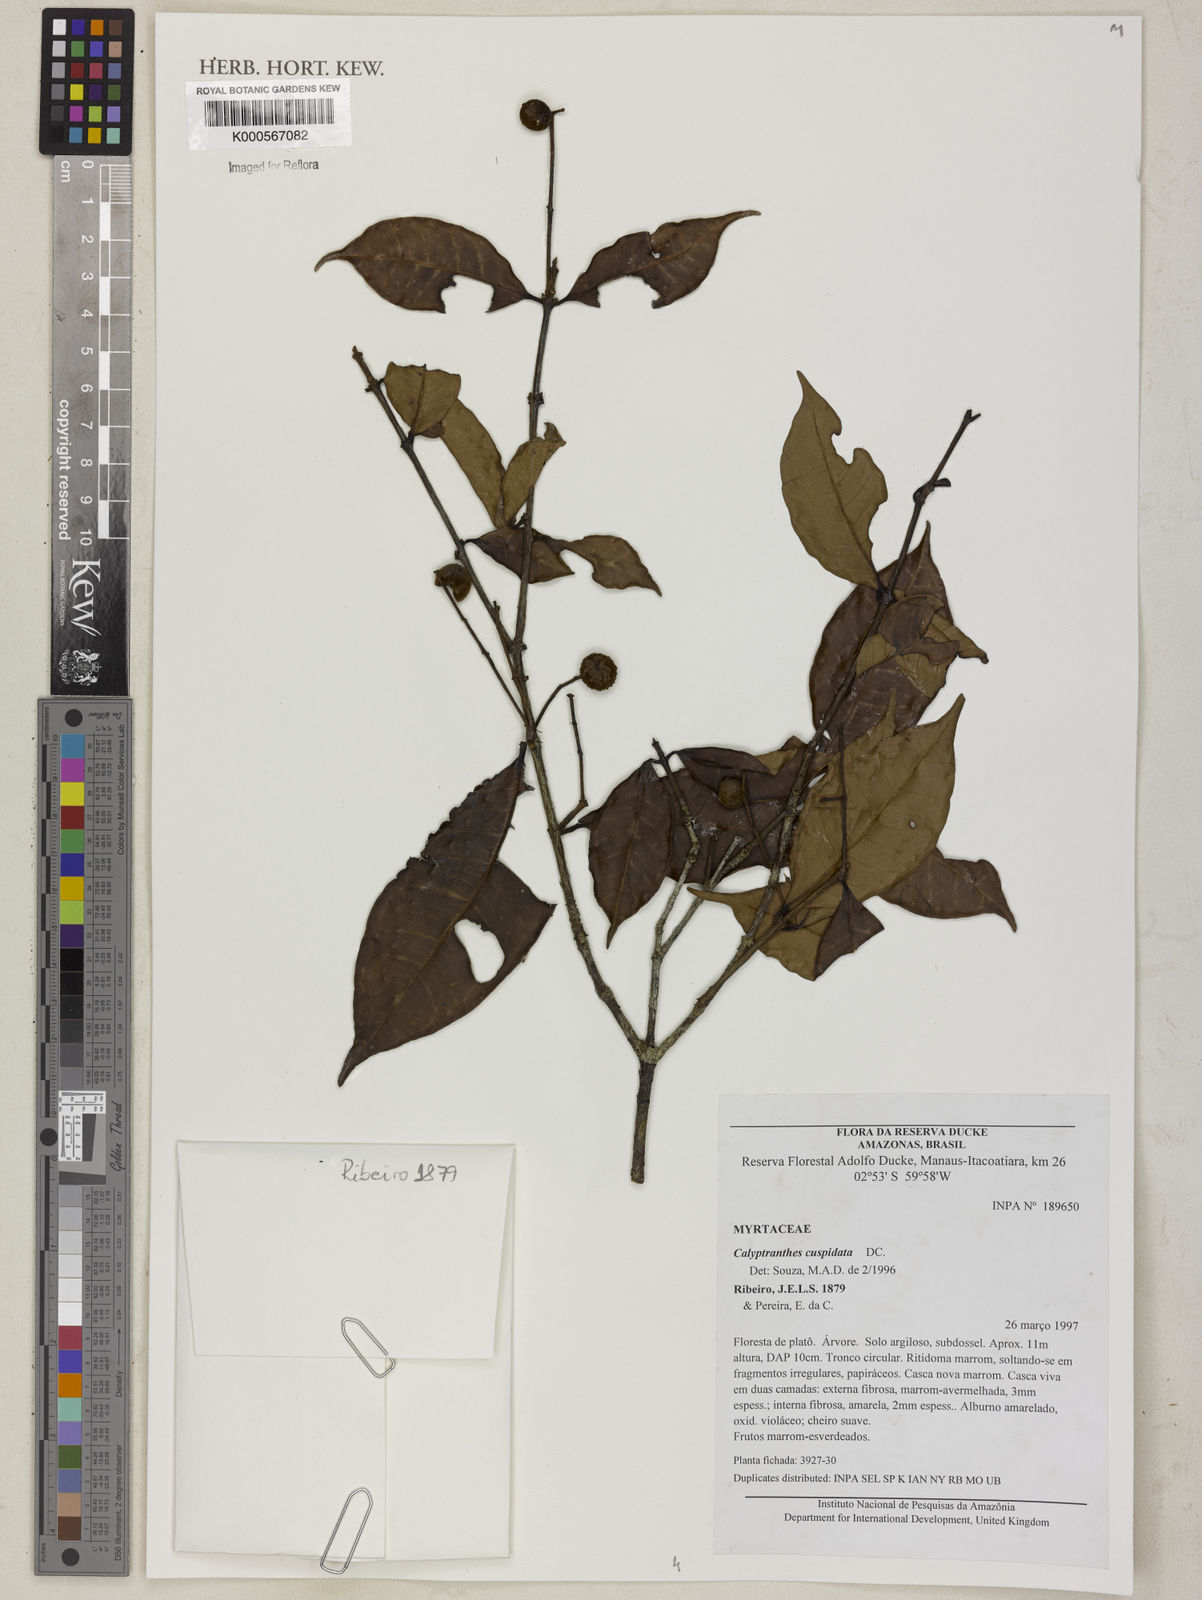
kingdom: Plantae
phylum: Tracheophyta
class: Magnoliopsida
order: Myrtales
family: Myrtaceae
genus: Myrcia
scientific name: Myrcia cuspidata
